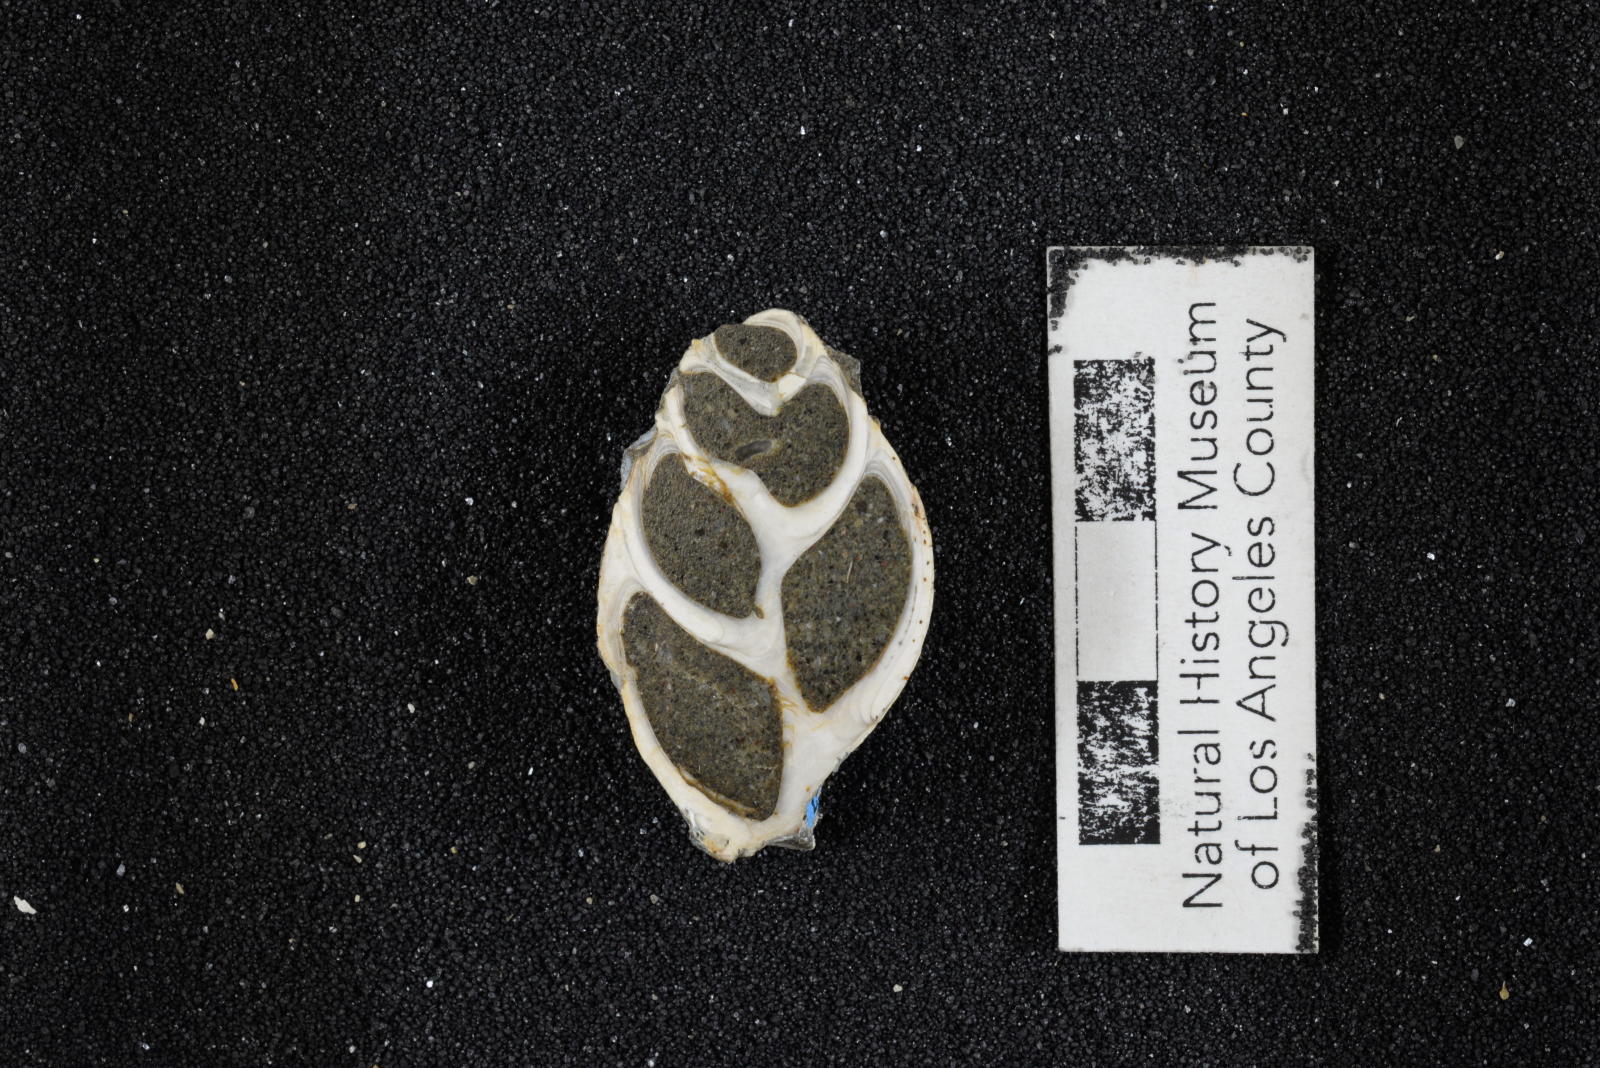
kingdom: Animalia
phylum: Mollusca
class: Gastropoda
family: Pseudomelaniidae
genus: Paosia
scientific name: Paosia Acteonina californica
